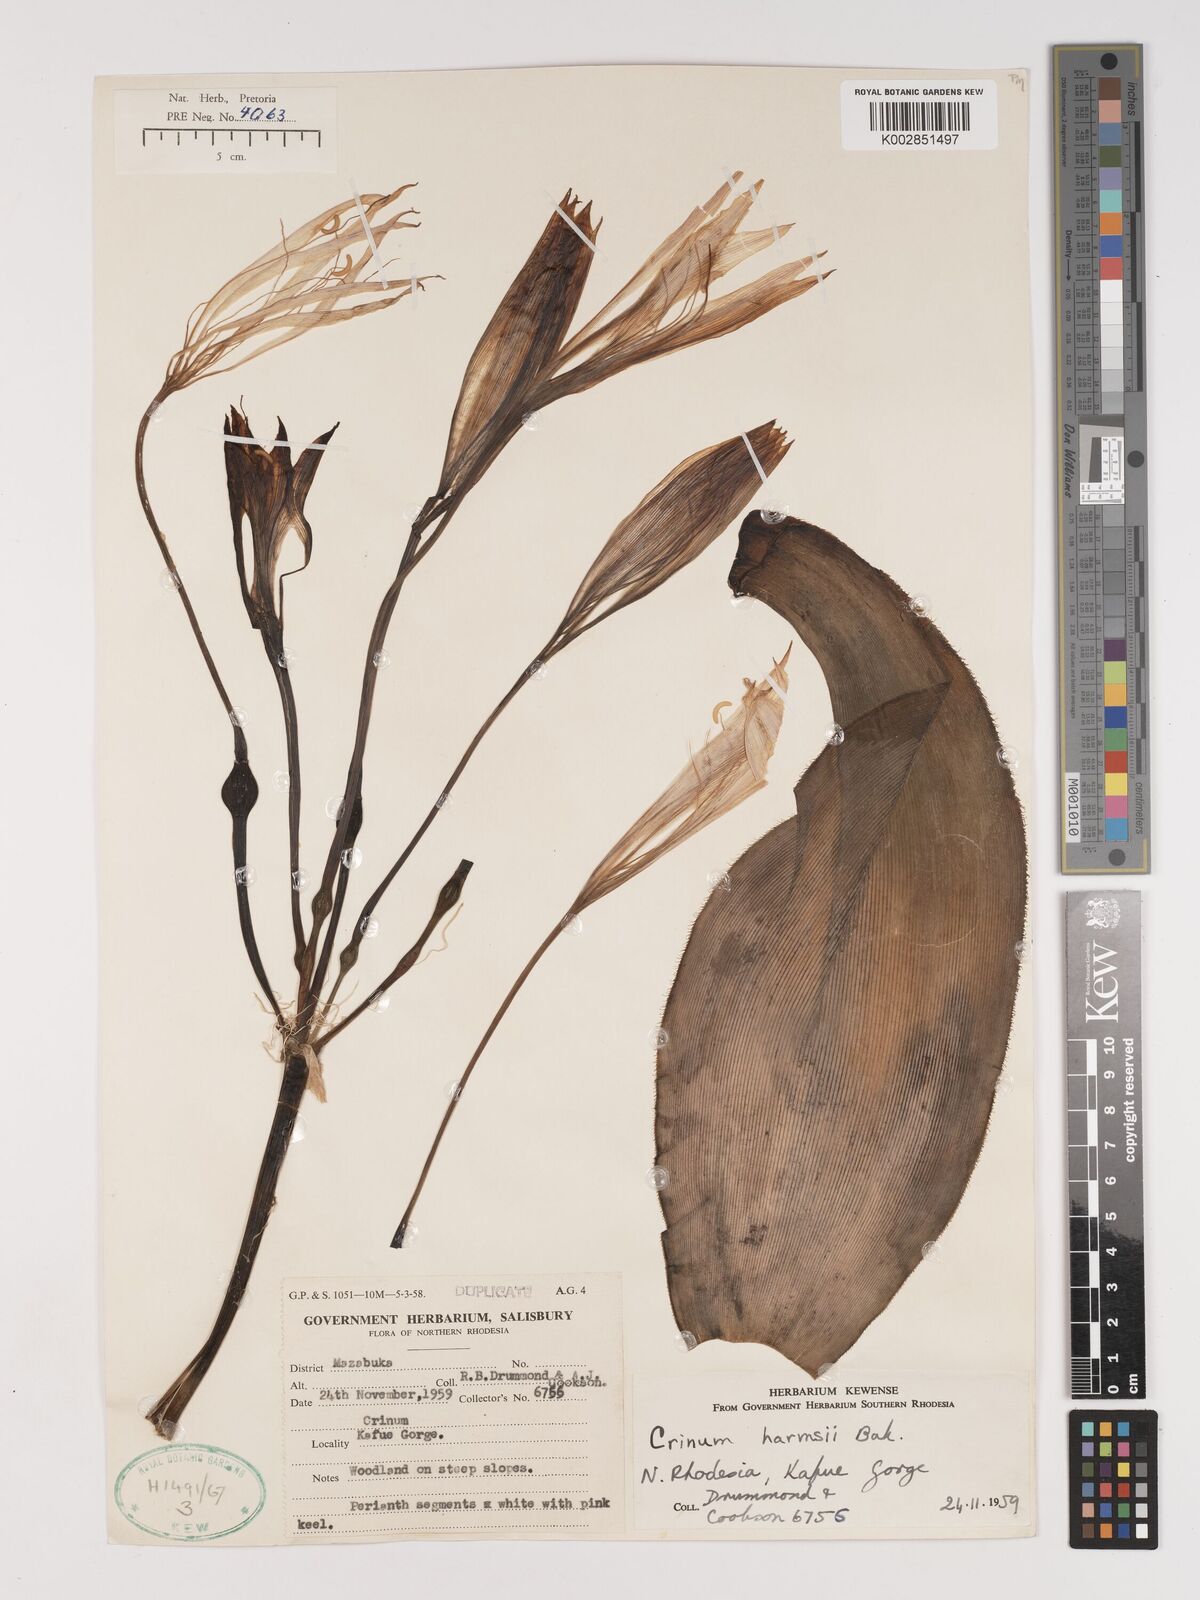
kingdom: Plantae
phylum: Tracheophyta
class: Liliopsida
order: Asparagales
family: Amaryllidaceae
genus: Crinum
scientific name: Crinum stuhlmannii
